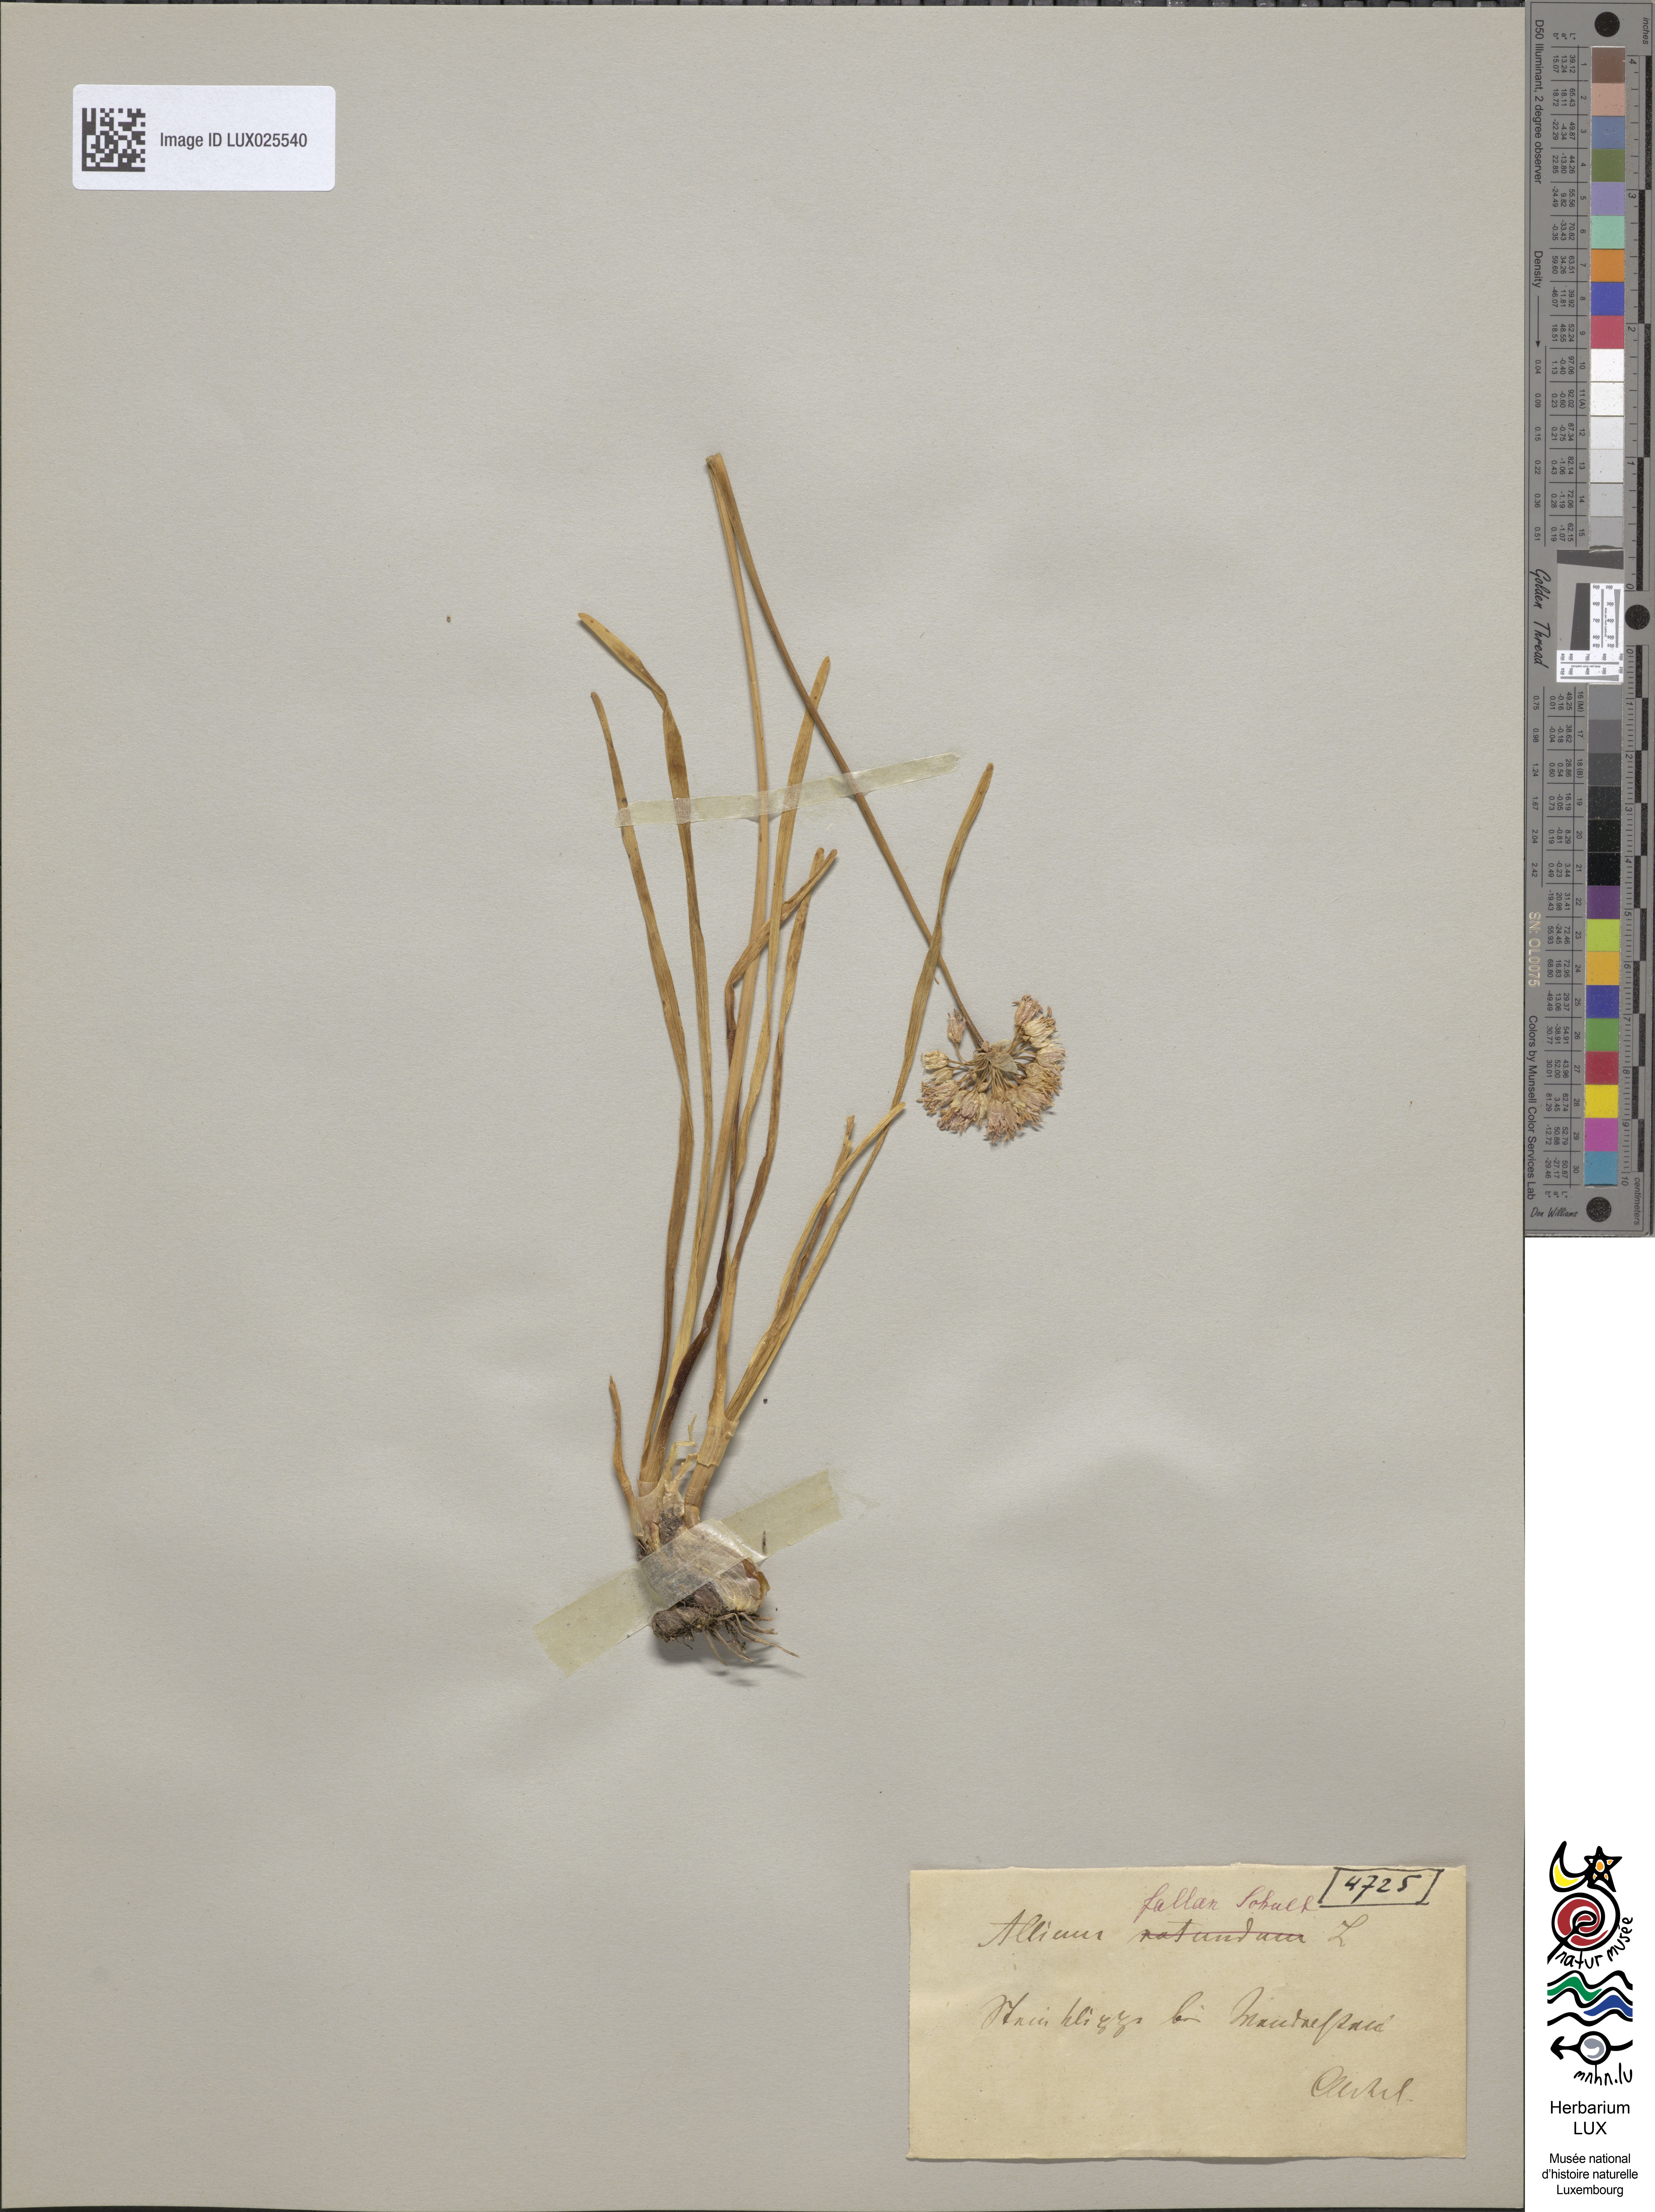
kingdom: Plantae
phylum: Tracheophyta
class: Liliopsida
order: Asparagales
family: Amaryllidaceae
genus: Allium
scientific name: Allium lusitanicum
